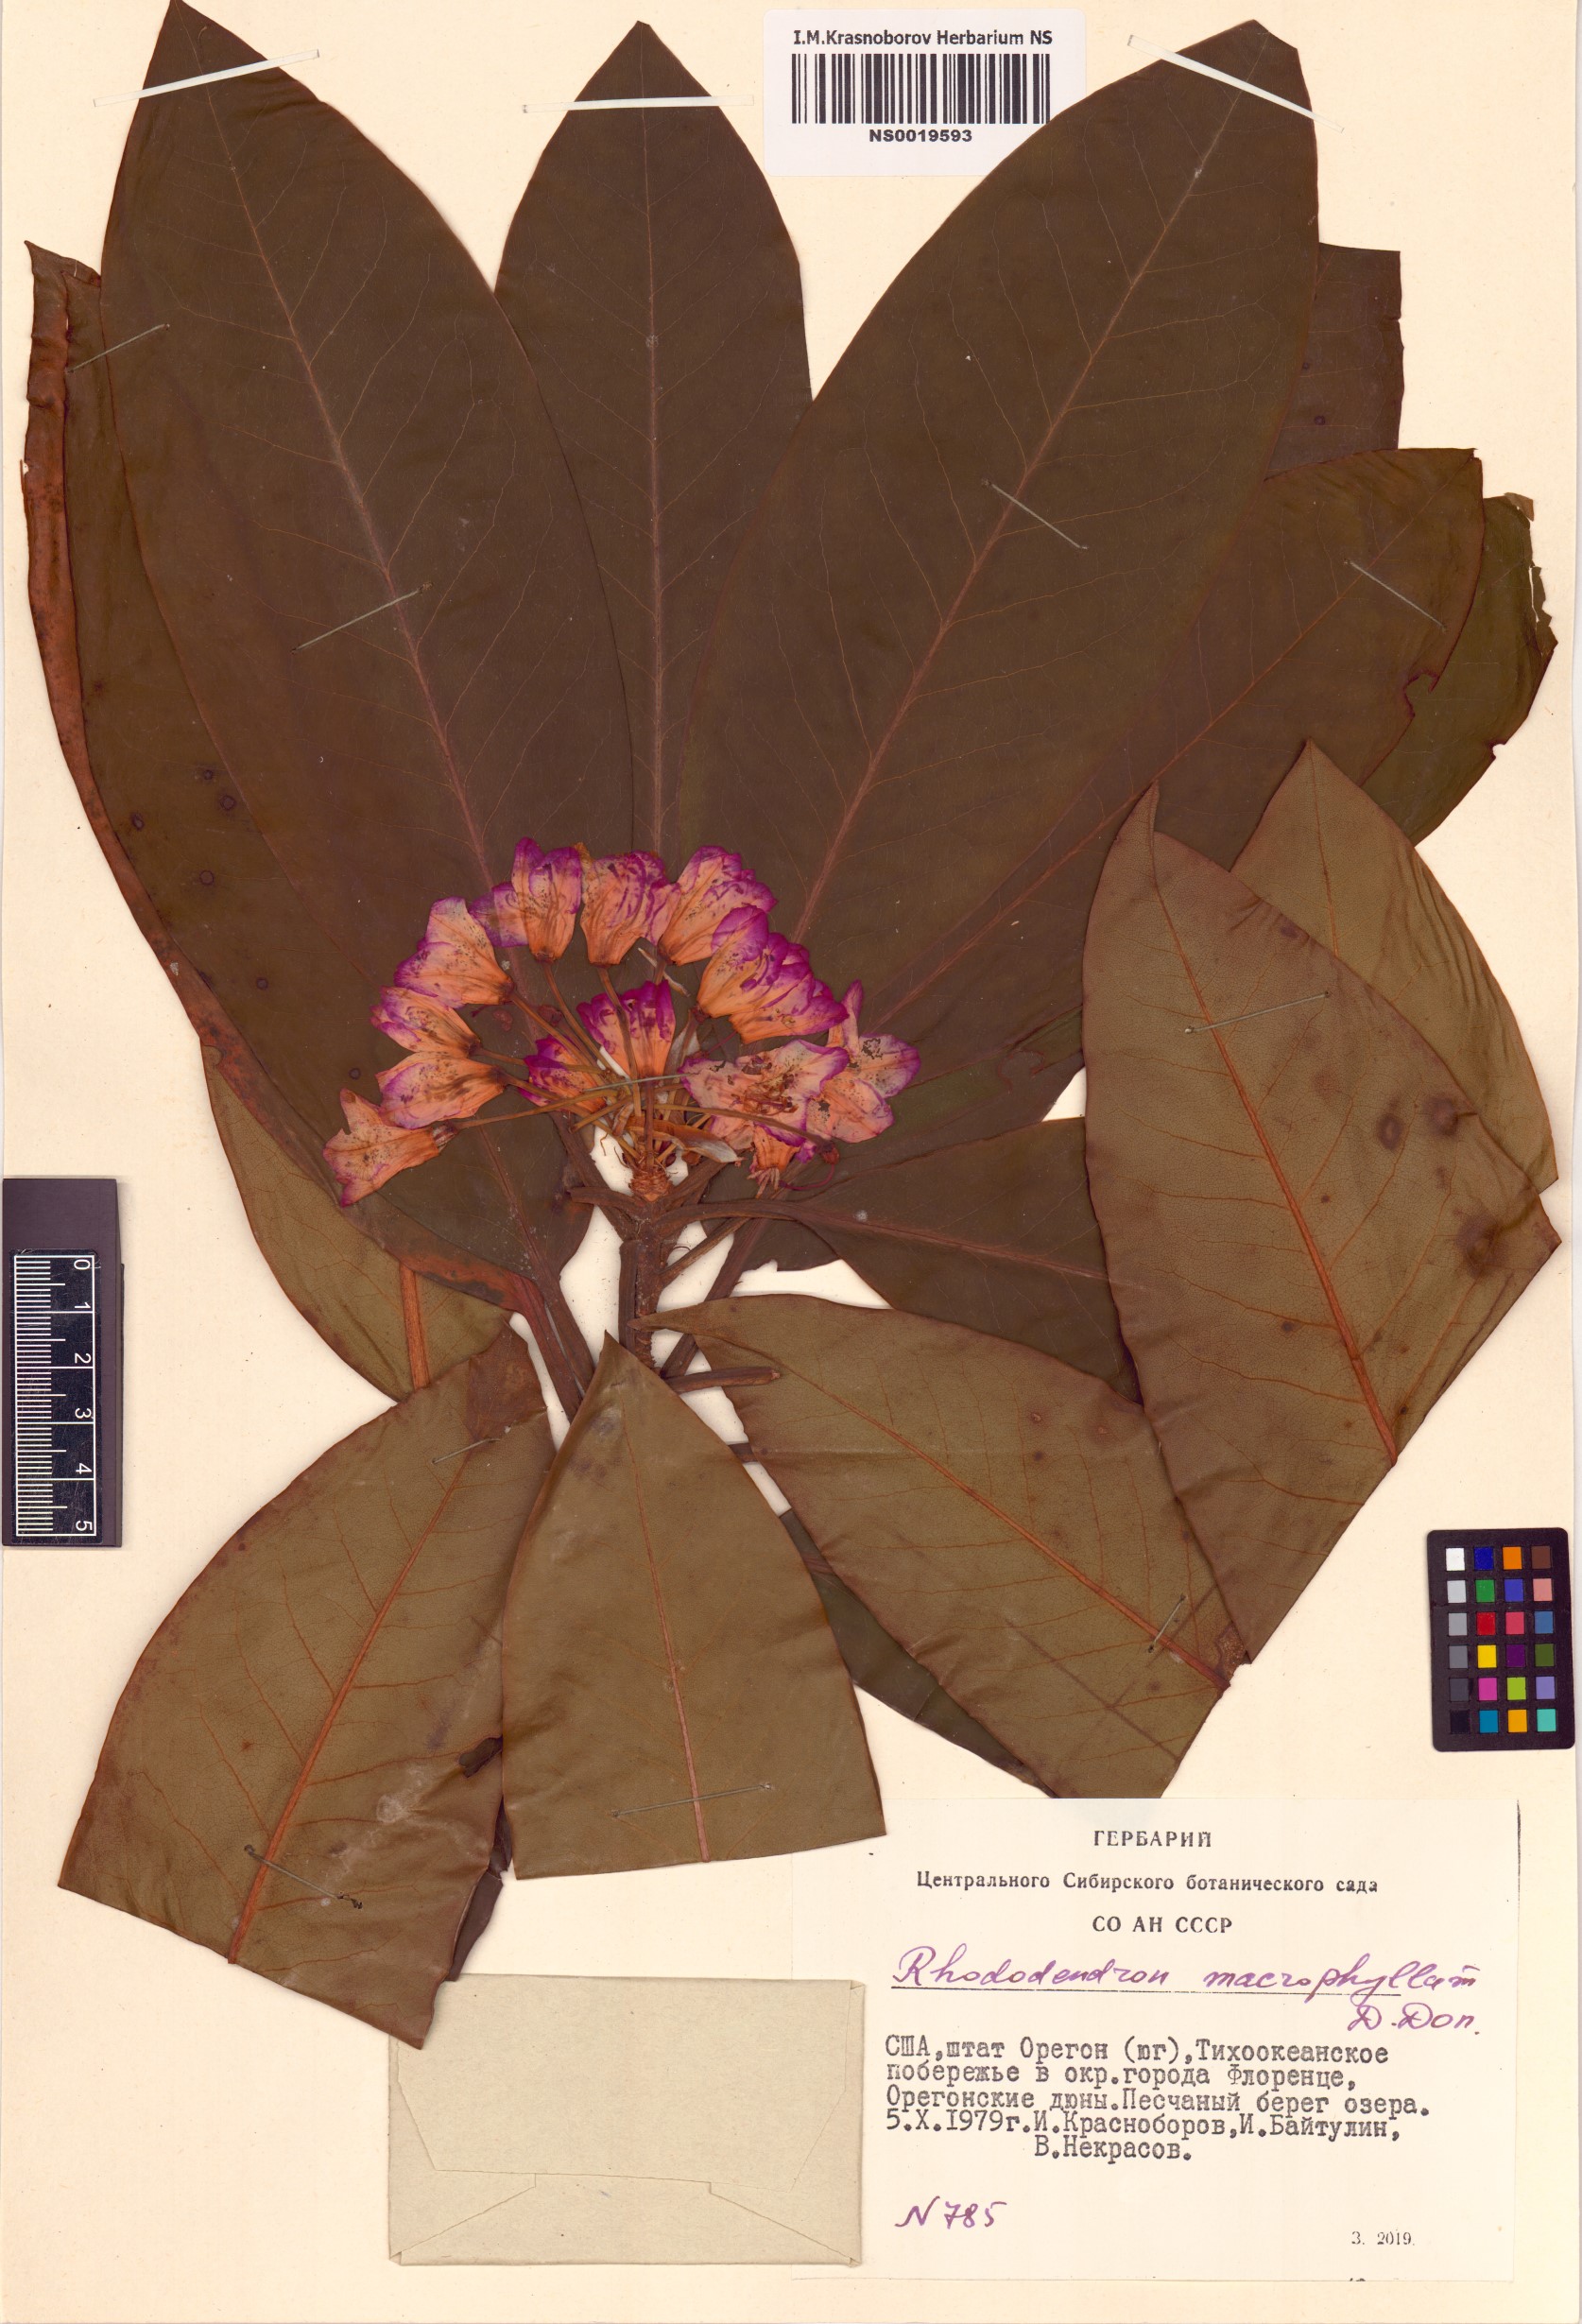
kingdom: Plantae
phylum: Tracheophyta
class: Magnoliopsida
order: Ericales
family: Ericaceae
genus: Rhododendron
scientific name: Rhododendron macrophyllum
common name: California rose bay
